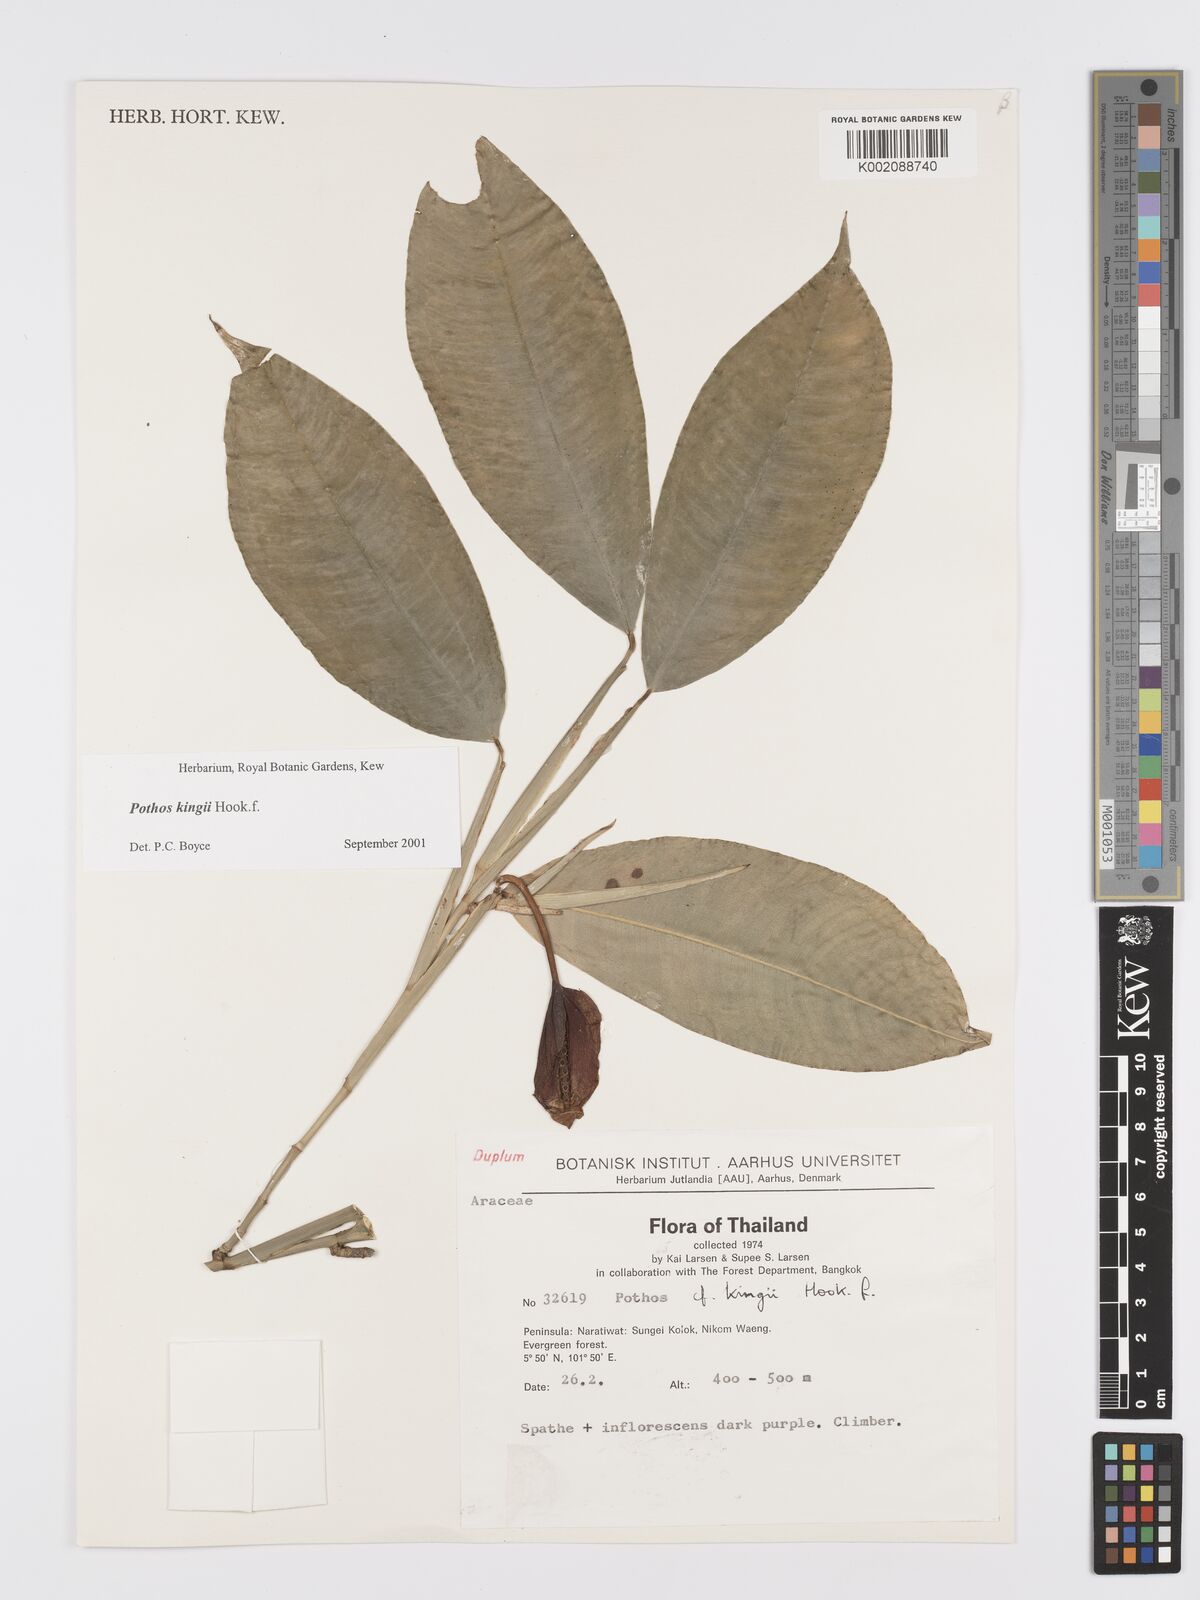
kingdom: Plantae
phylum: Tracheophyta
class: Liliopsida
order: Alismatales
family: Araceae
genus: Pothos
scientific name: Pothos kingii
